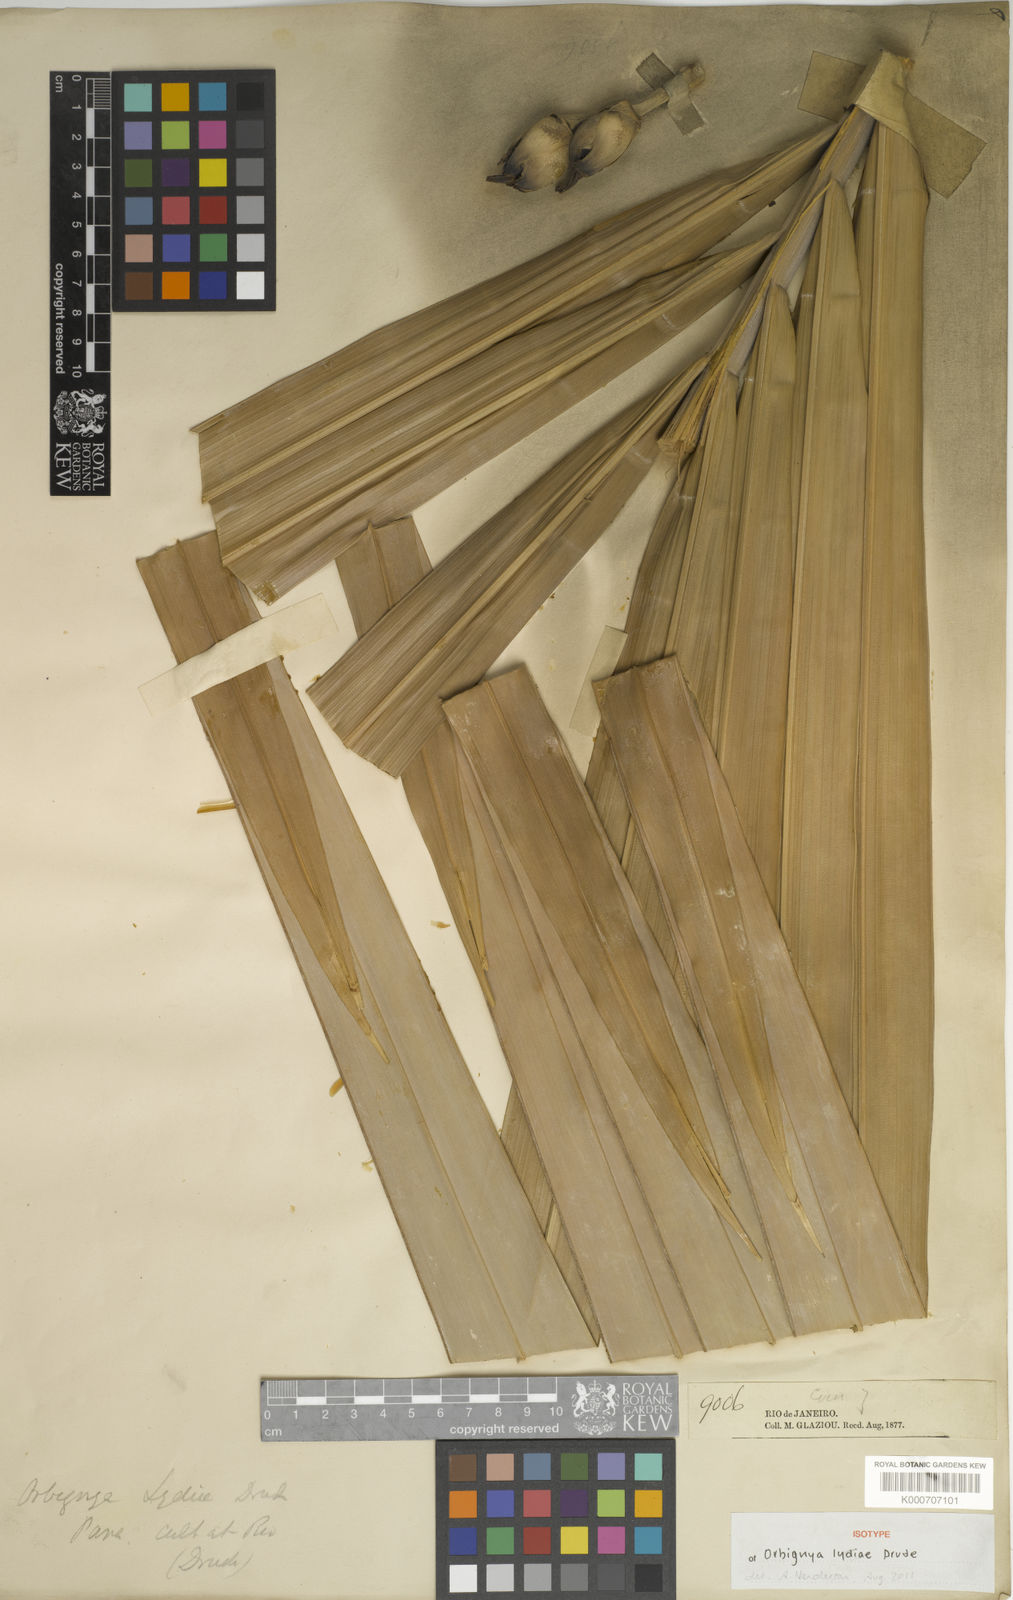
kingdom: Plantae
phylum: Tracheophyta
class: Liliopsida
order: Arecales
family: Arecaceae
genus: Attalea
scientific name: Attalea speciosa
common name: Babassu palm
